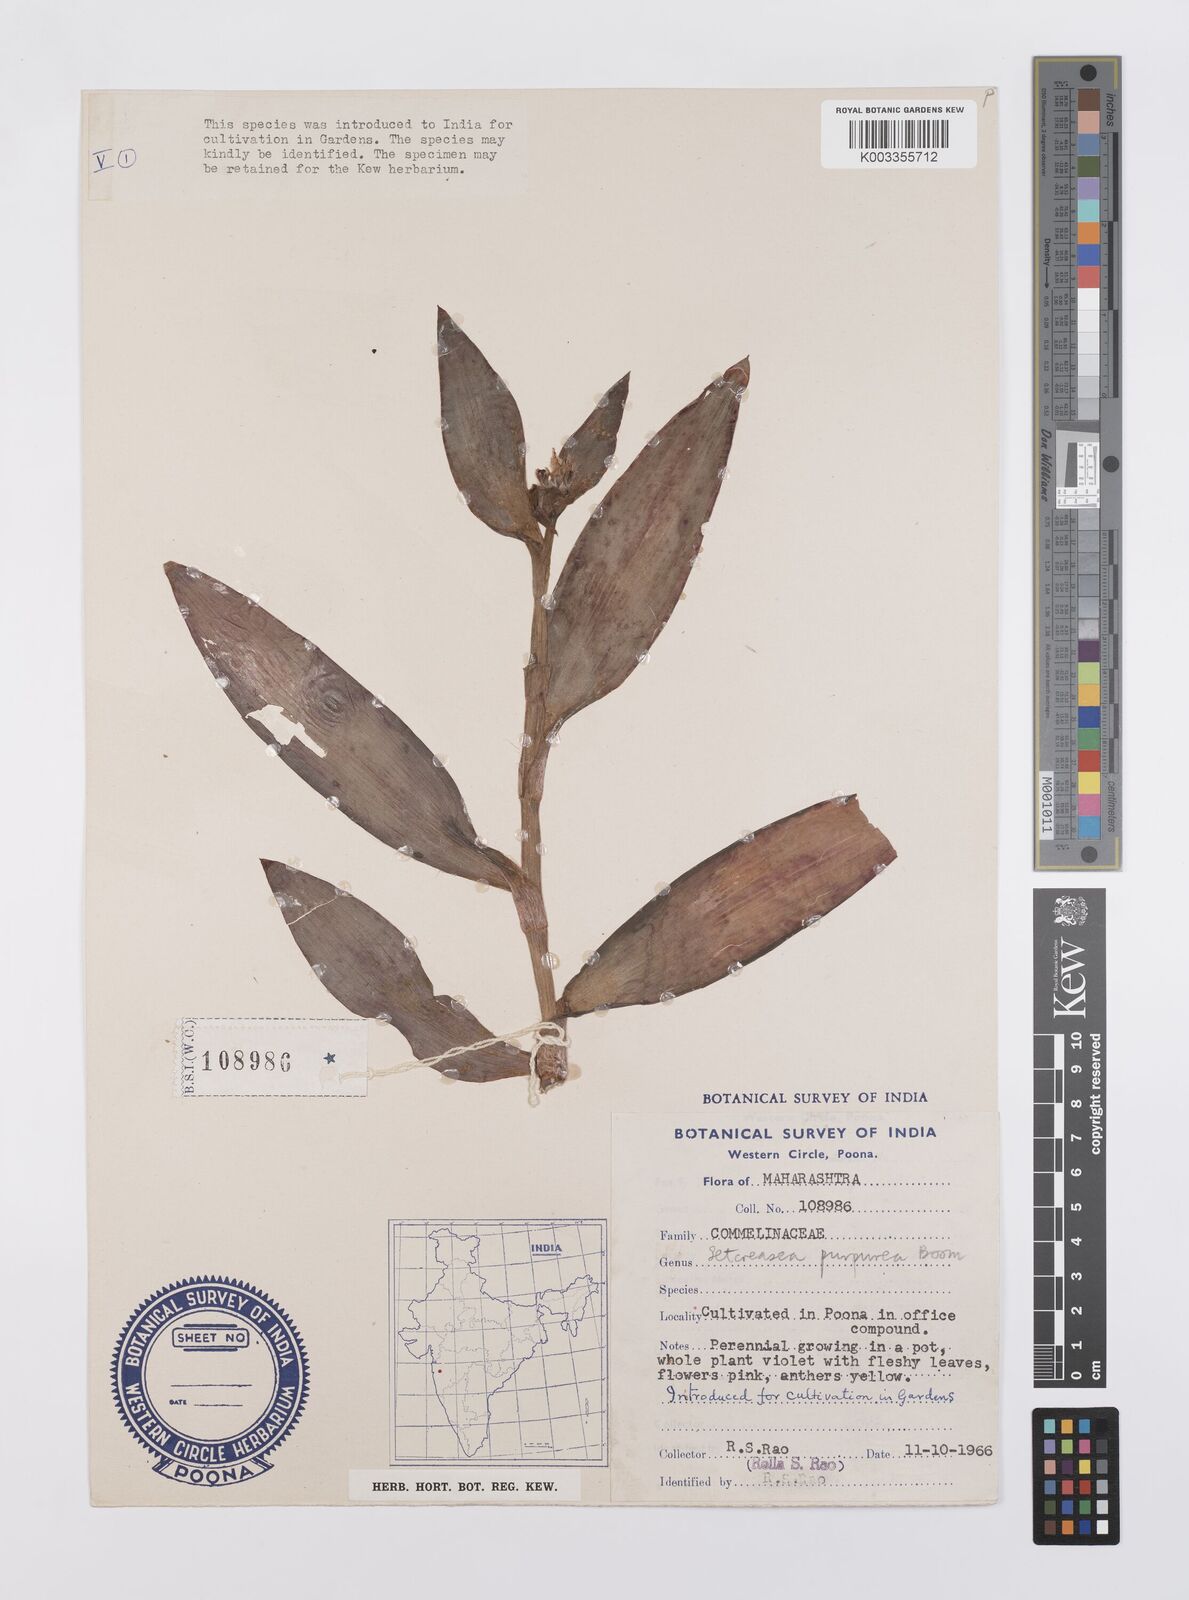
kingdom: Plantae
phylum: Tracheophyta
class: Liliopsida
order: Commelinales
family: Commelinaceae
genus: Callisia
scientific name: Callisia purpurascens
